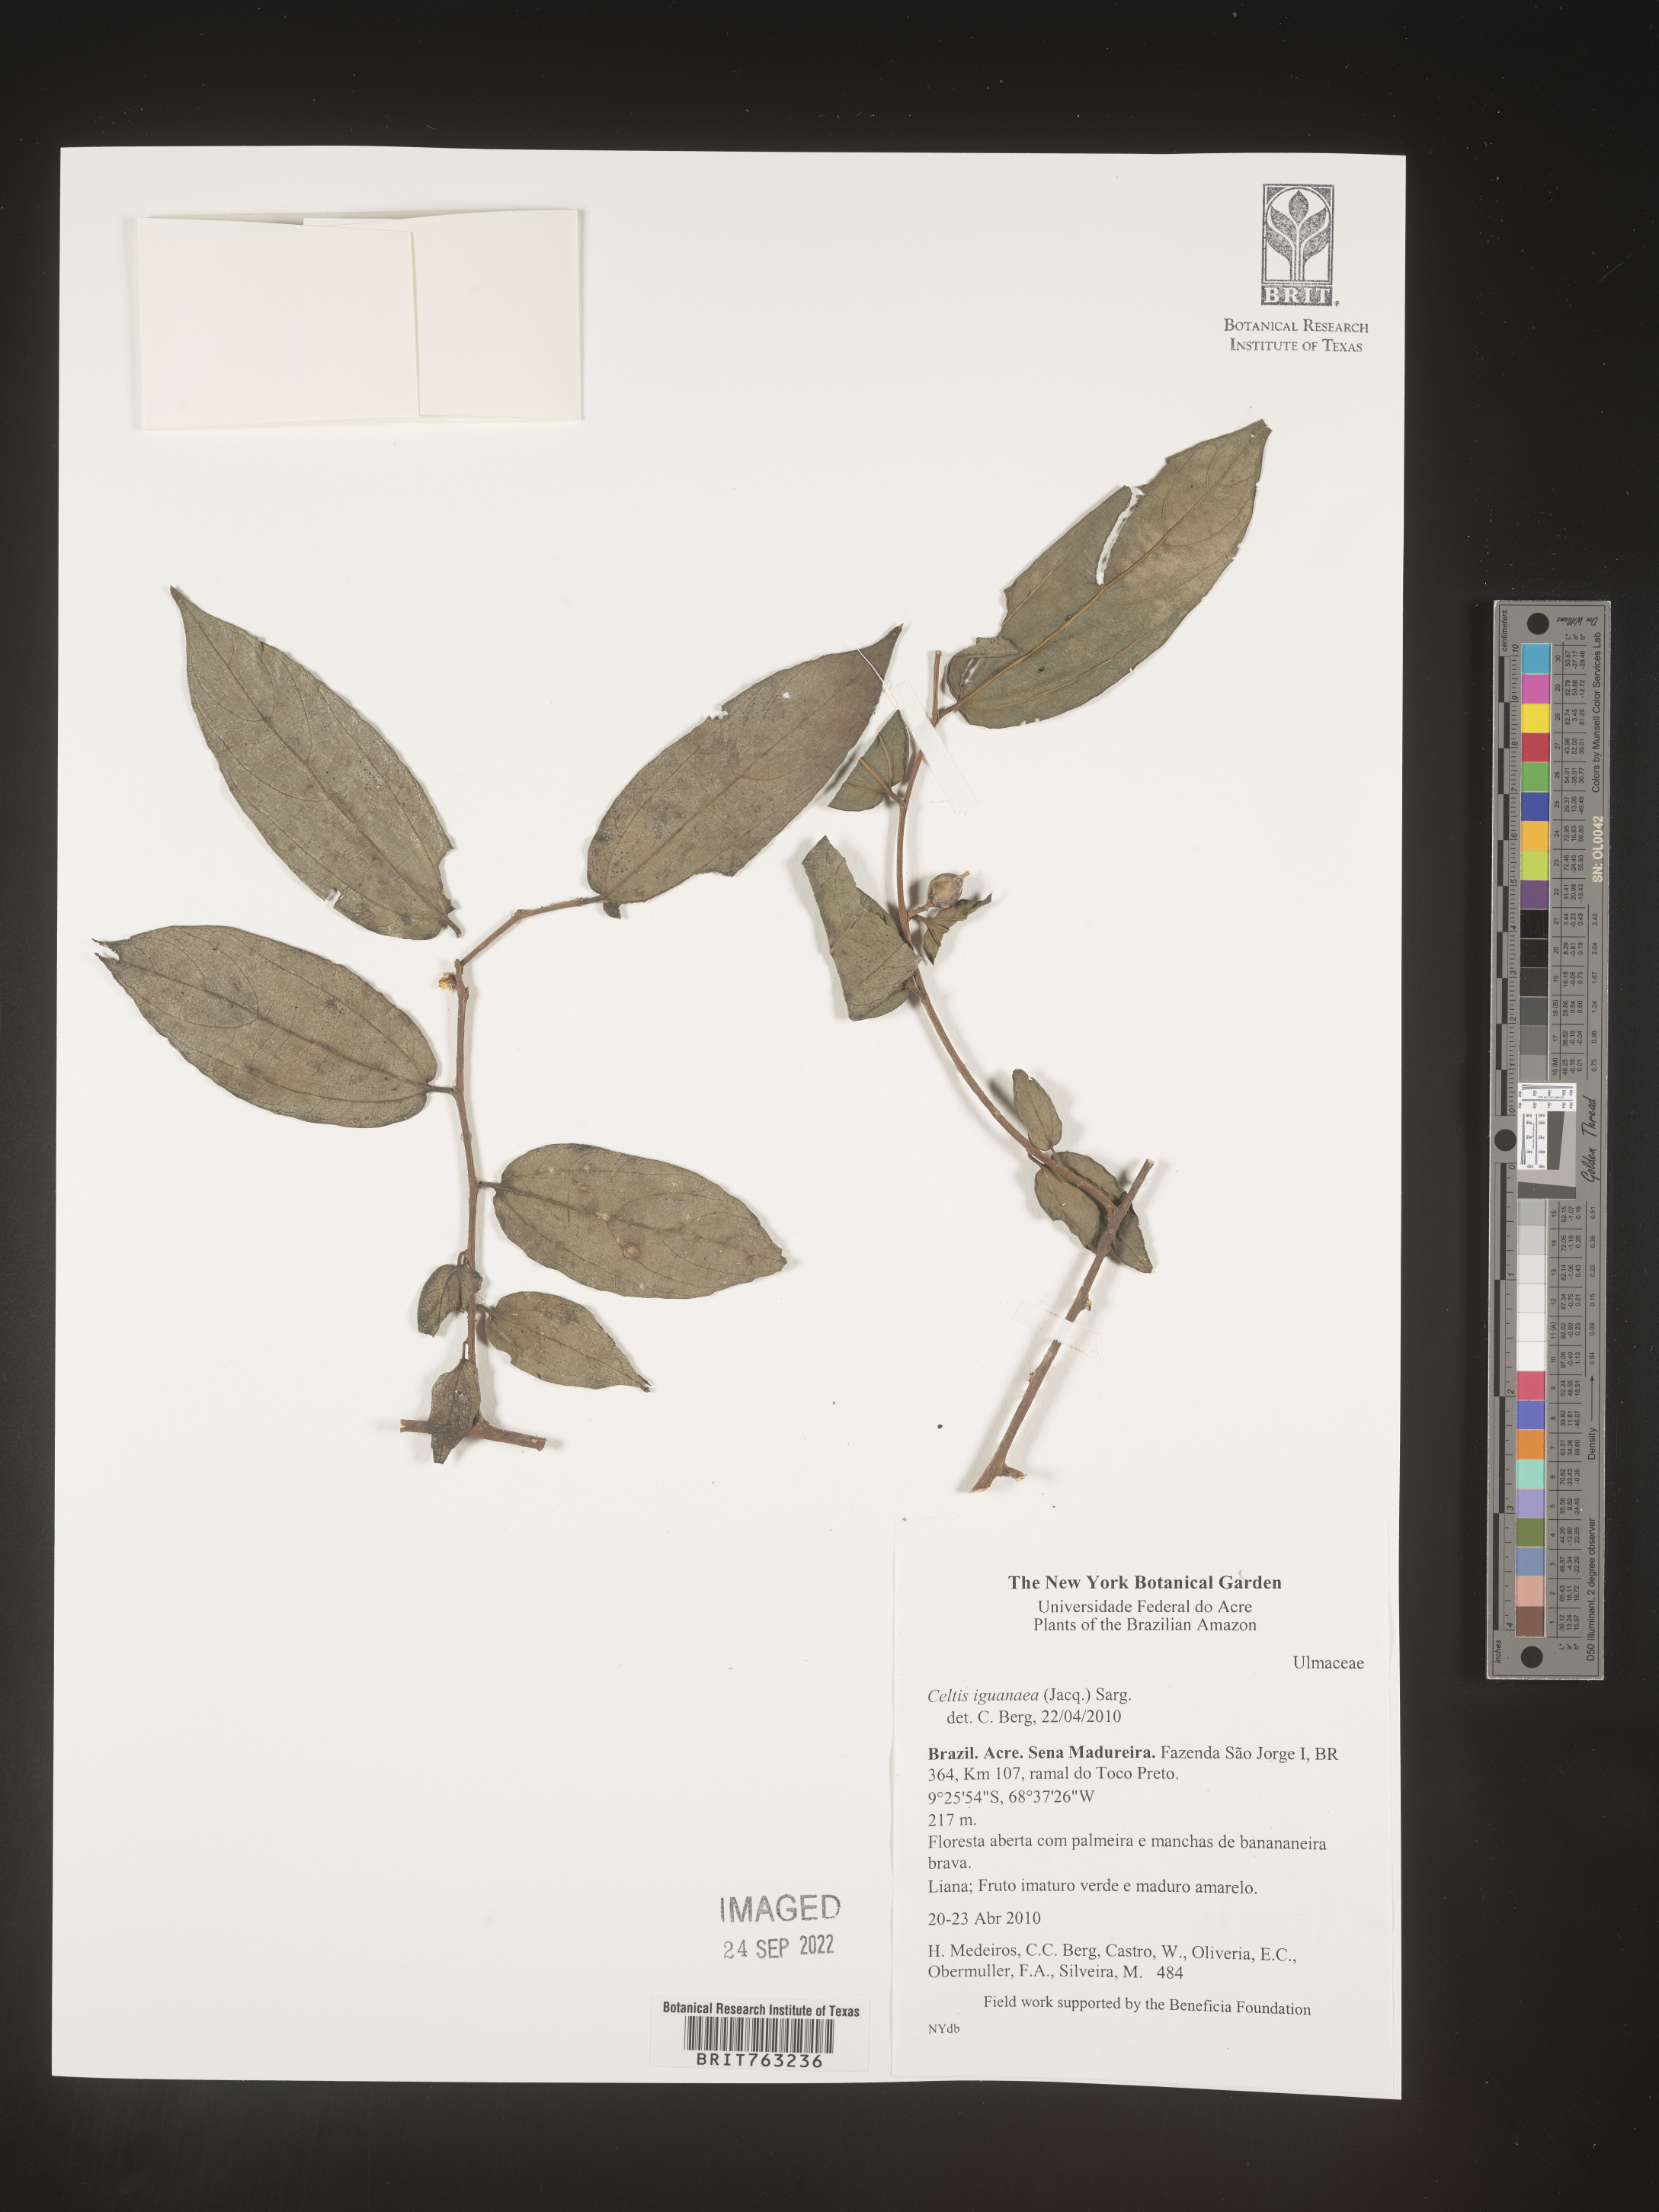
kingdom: Plantae
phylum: Tracheophyta
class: Magnoliopsida
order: Rosales
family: Cannabaceae
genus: Celtis
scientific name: Celtis iguanaea
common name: Iguana hackberry
